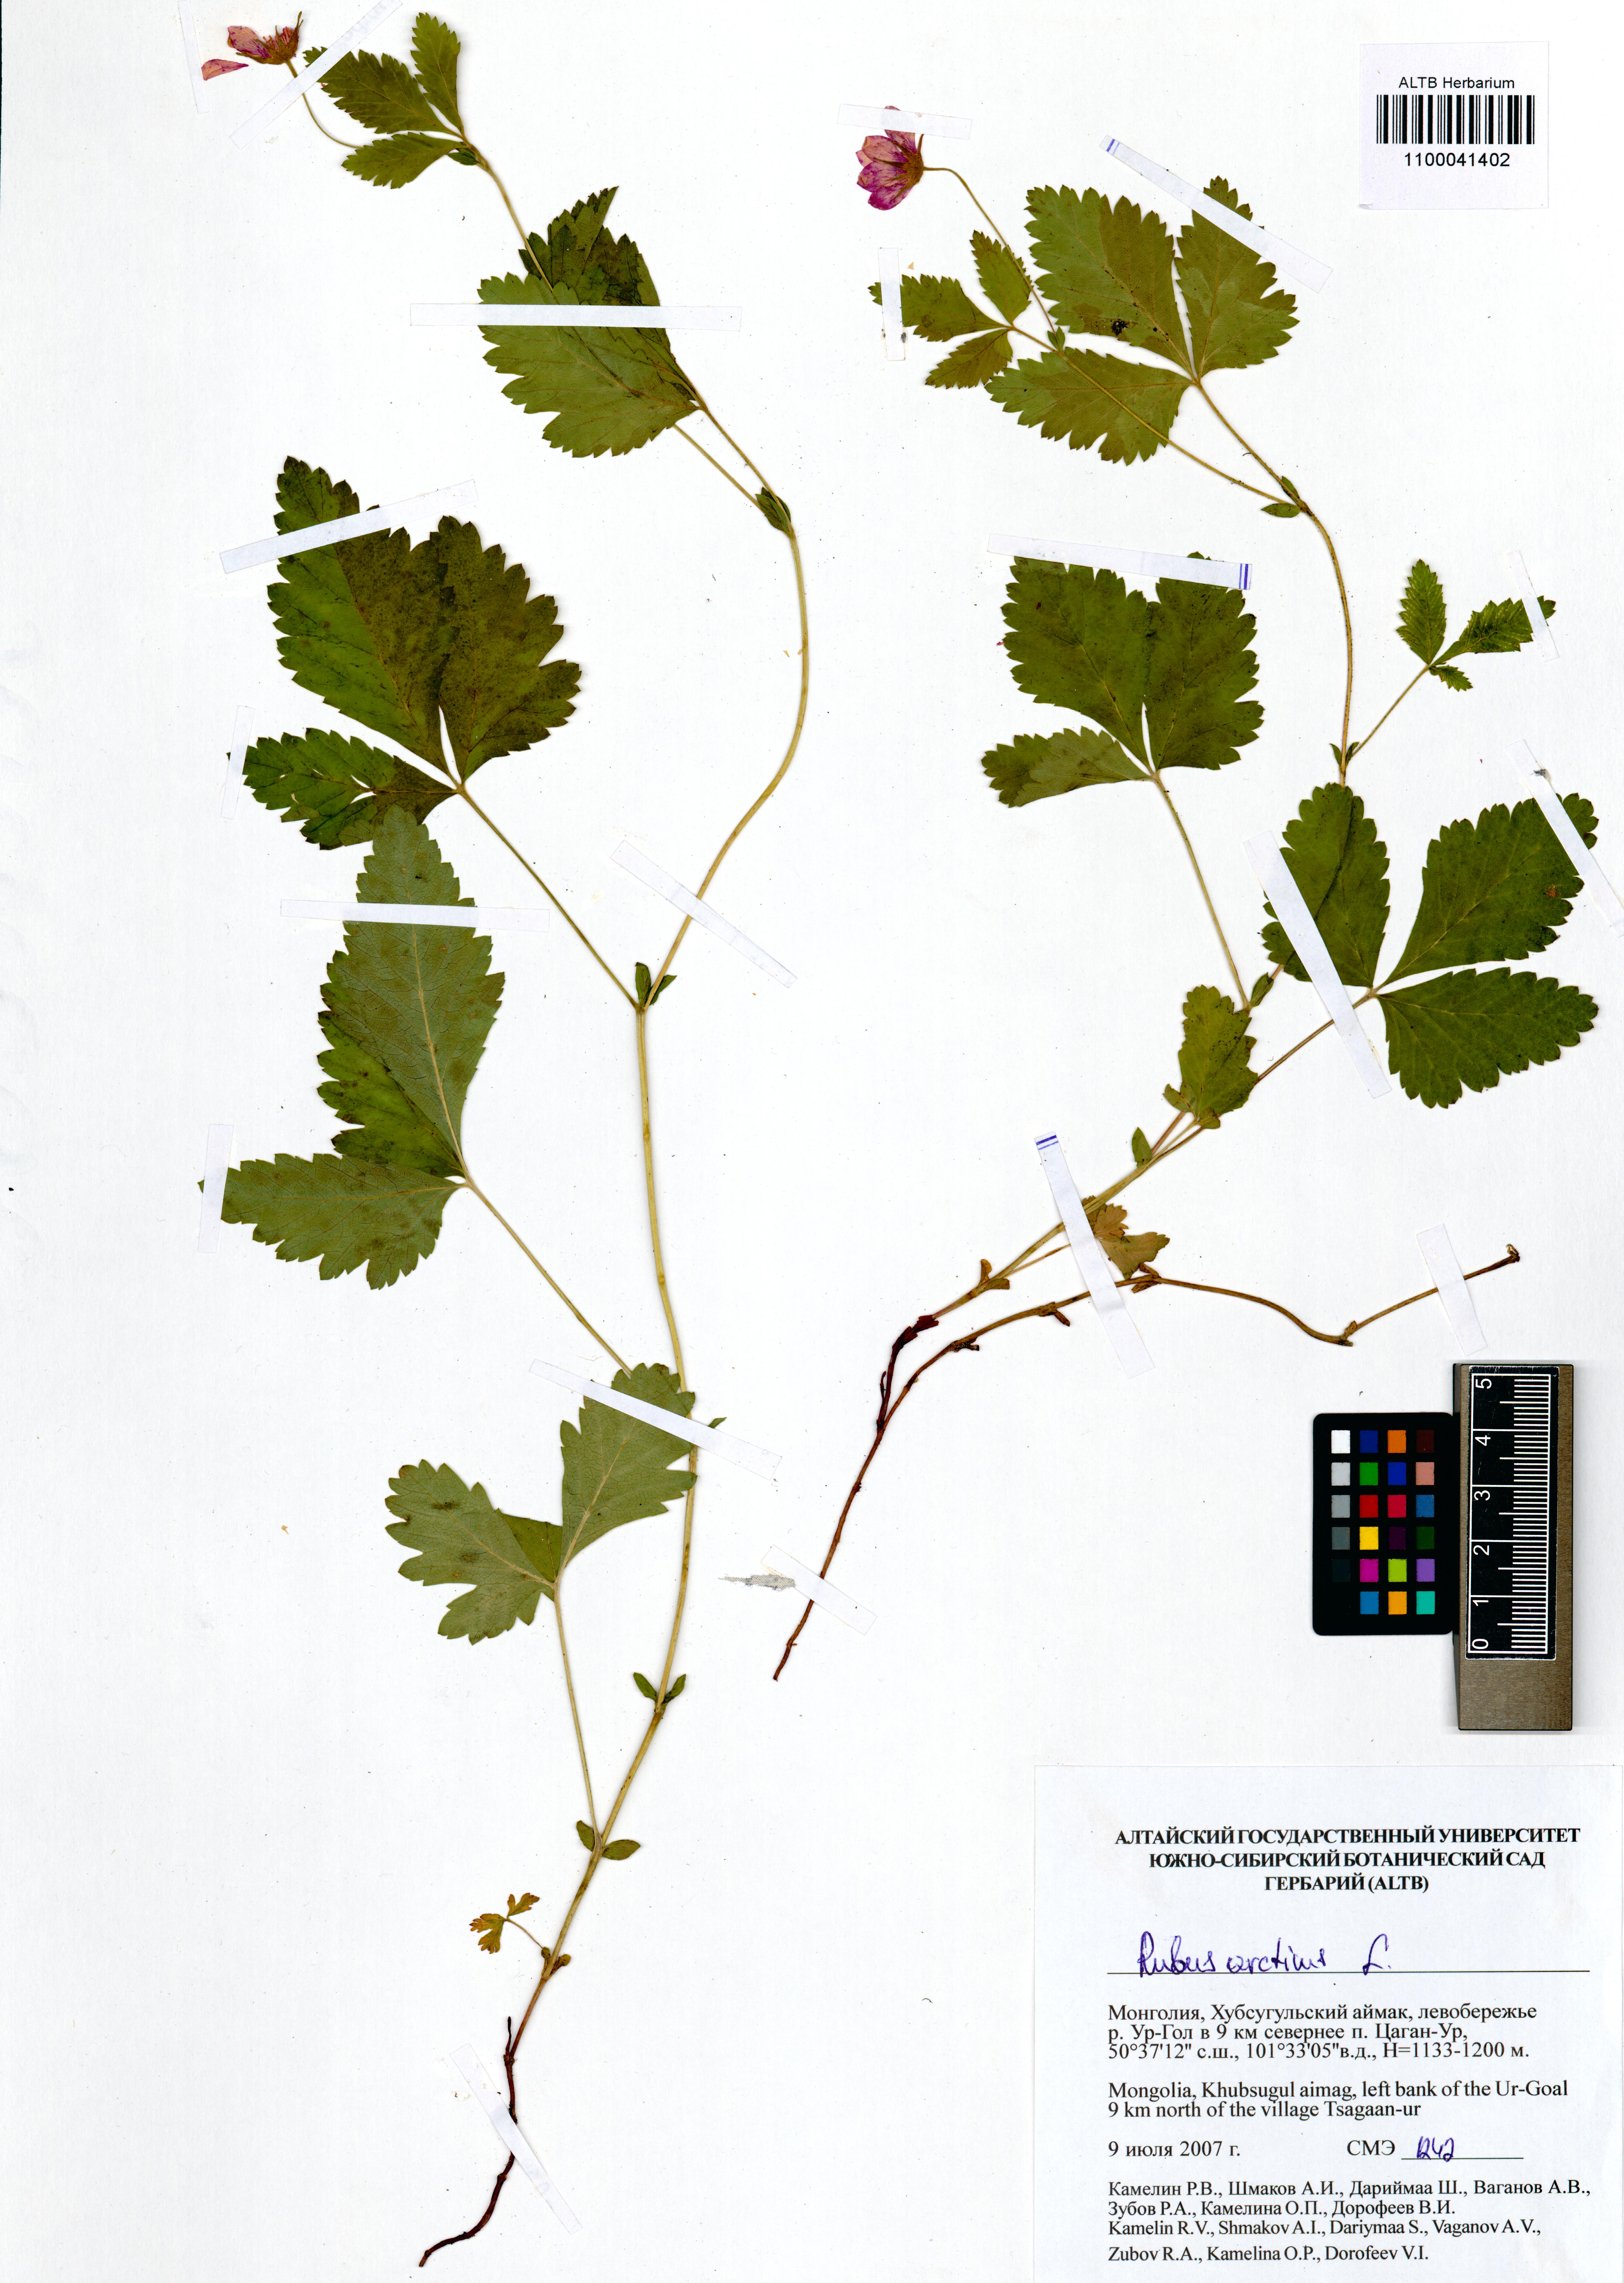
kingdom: Plantae
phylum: Tracheophyta
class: Magnoliopsida
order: Rosales
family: Rosaceae
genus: Rubus
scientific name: Rubus arcticus
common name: Arctic bramble
